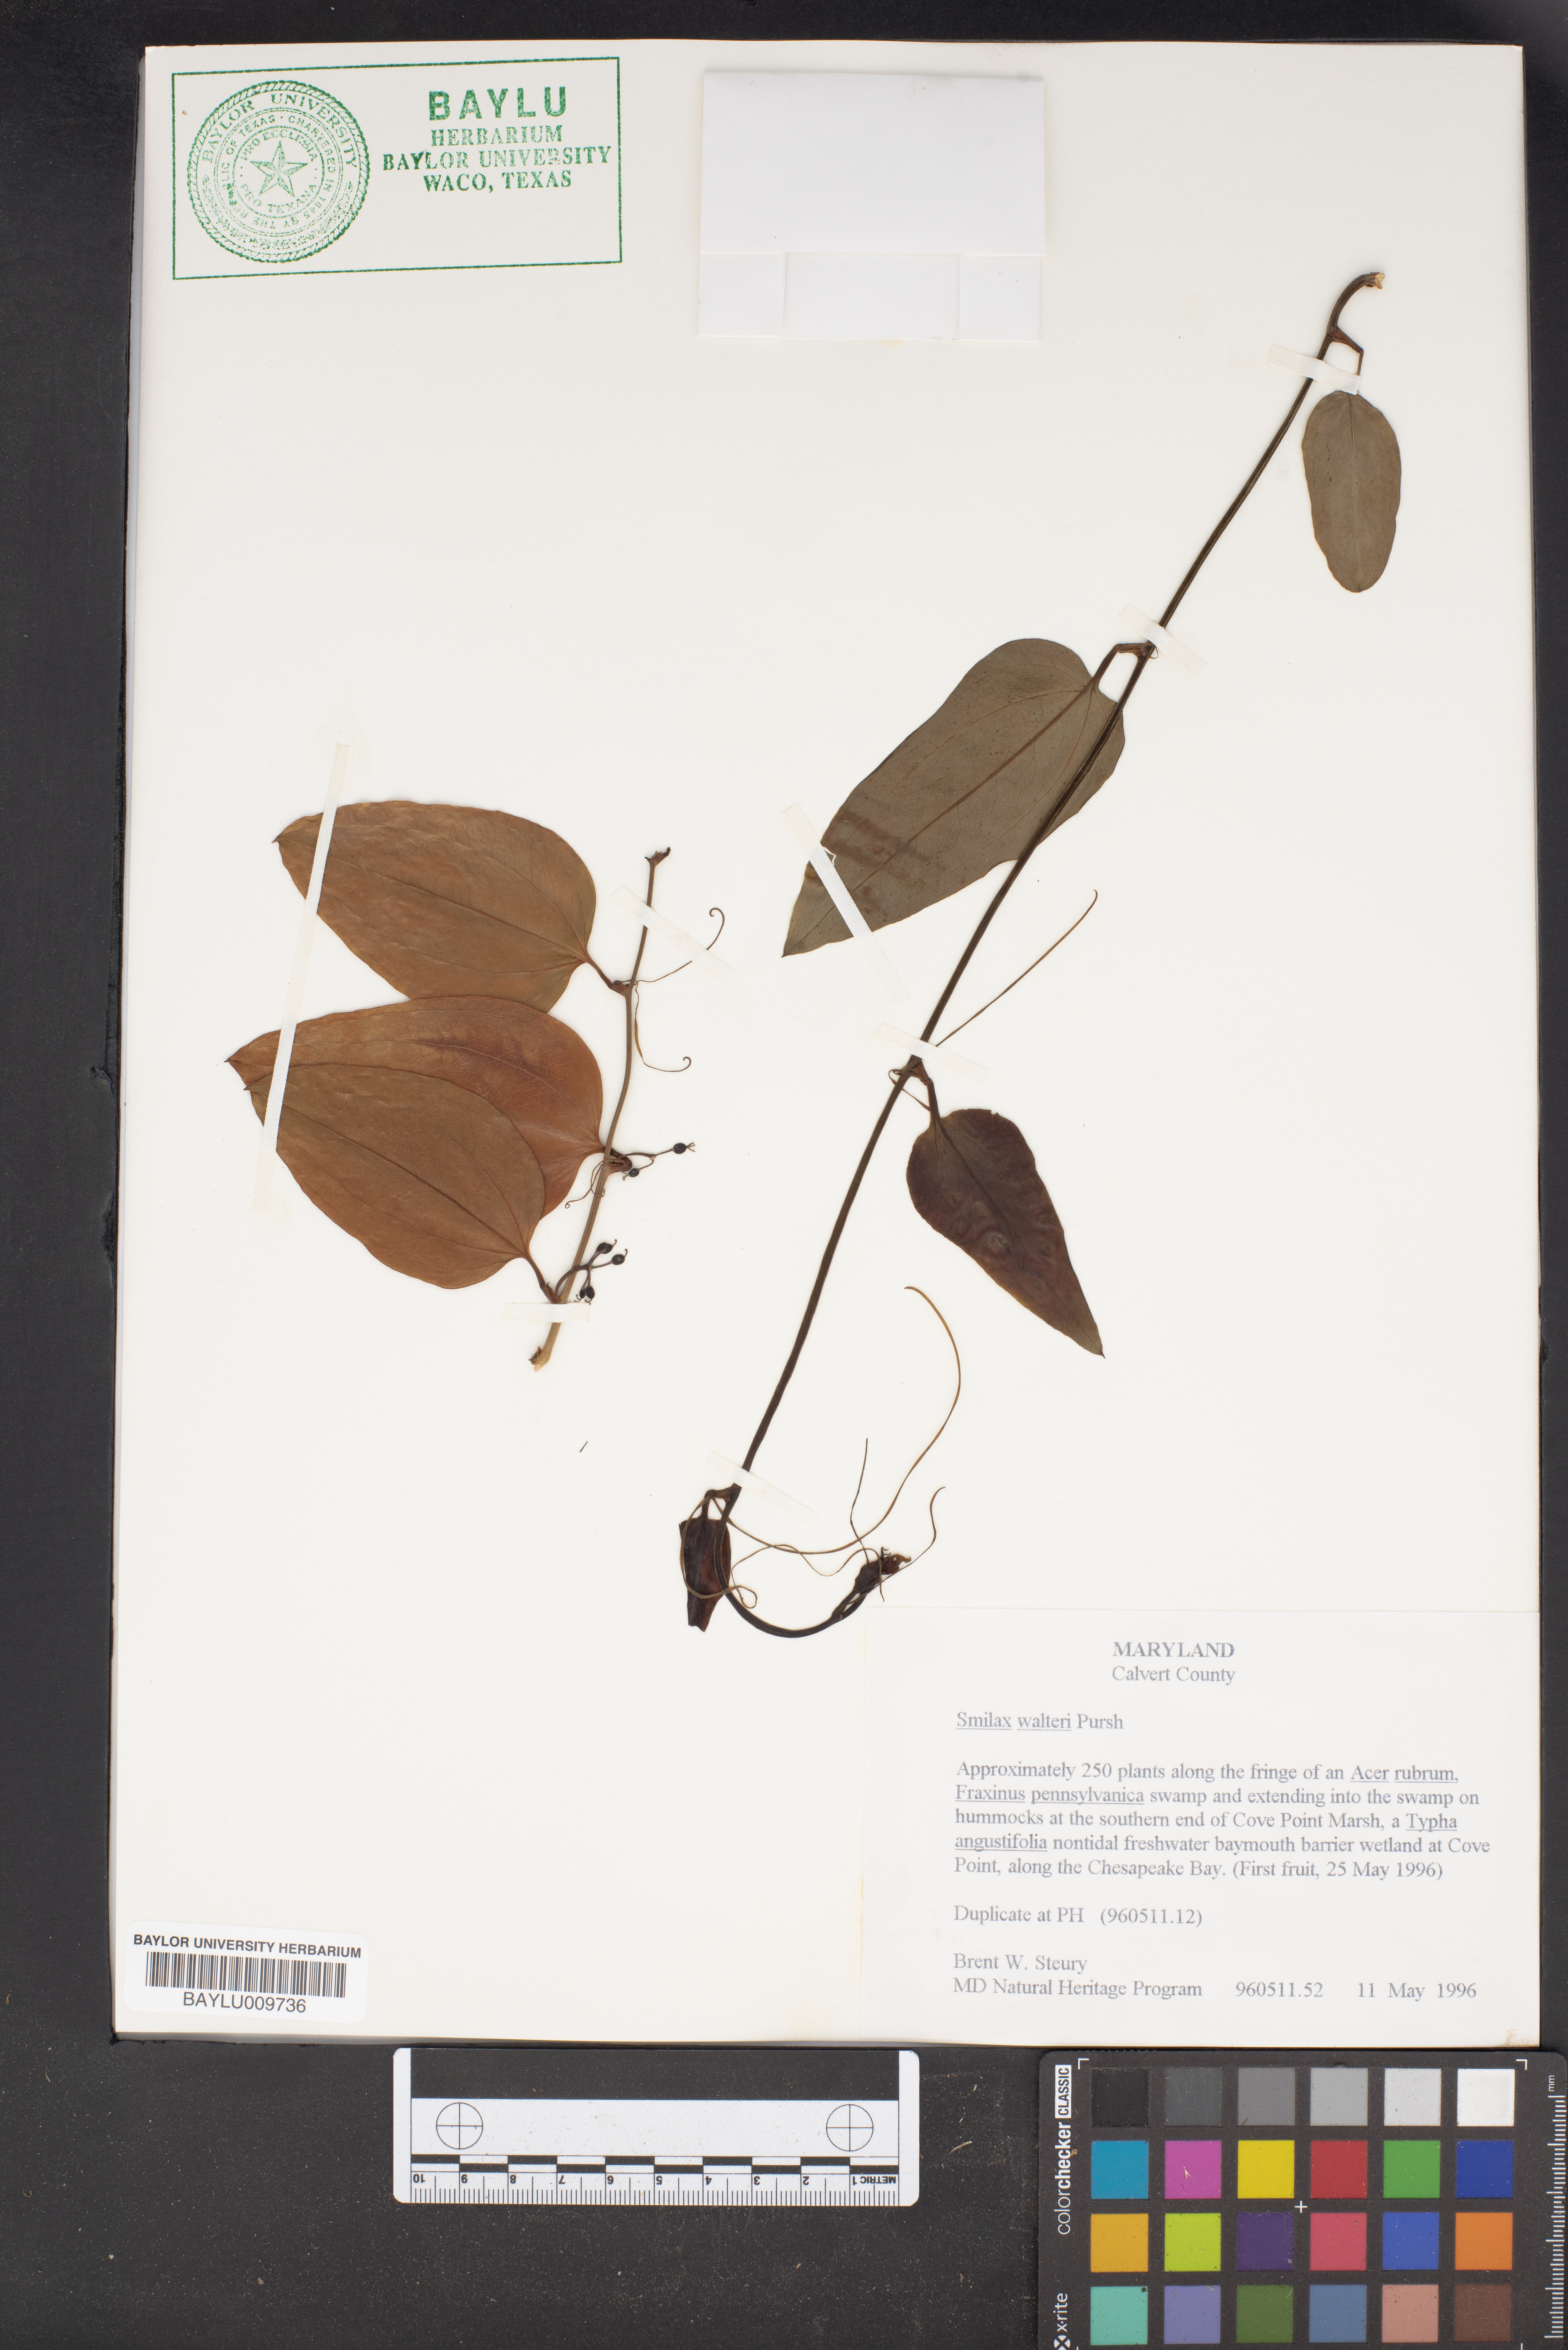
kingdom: Plantae
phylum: Tracheophyta
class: Liliopsida
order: Liliales
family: Smilacaceae
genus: Smilax
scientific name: Smilax walteri
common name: Coral greenbrier
